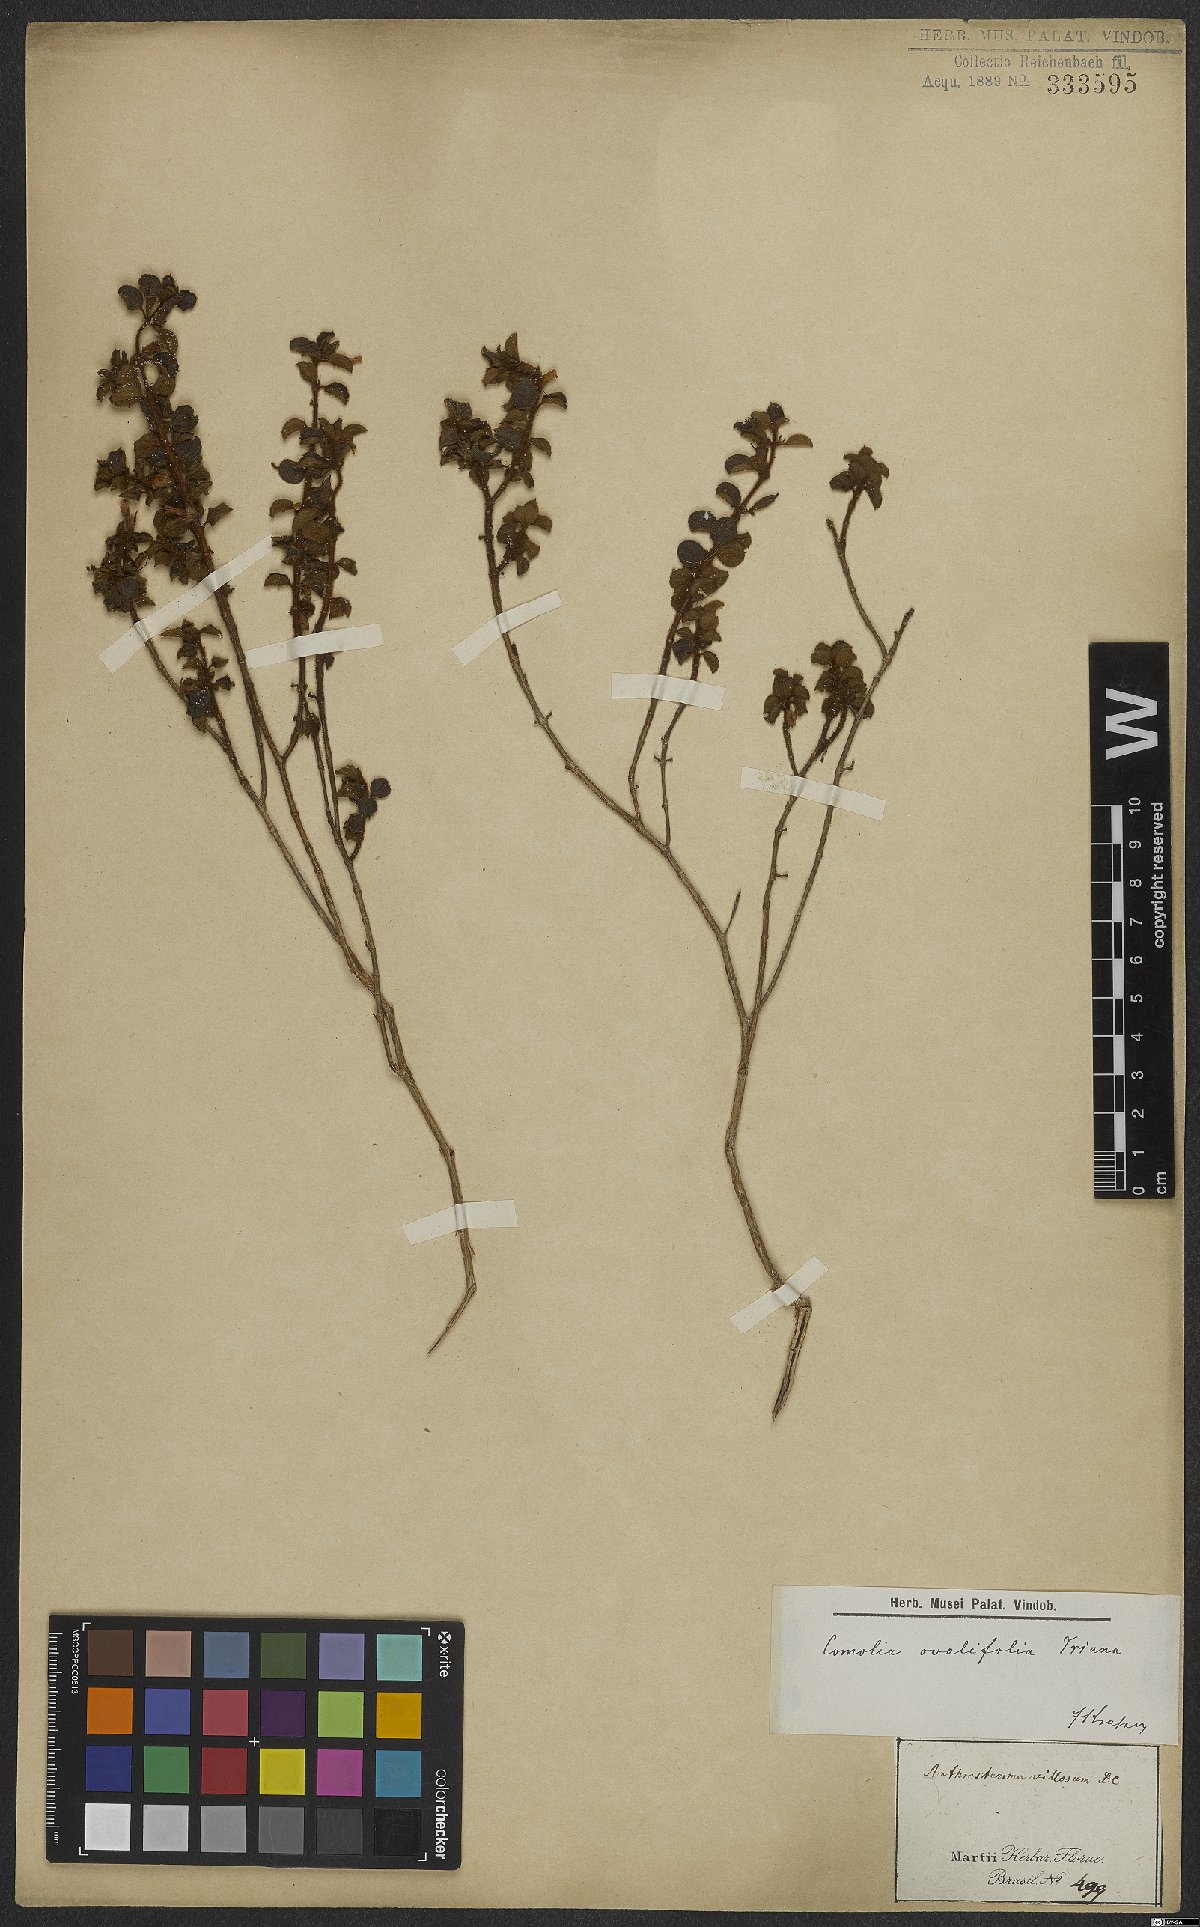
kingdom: Plantae
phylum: Tracheophyta
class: Magnoliopsida
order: Myrtales
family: Melastomataceae
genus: Comolia
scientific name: Comolia ovalifolia
